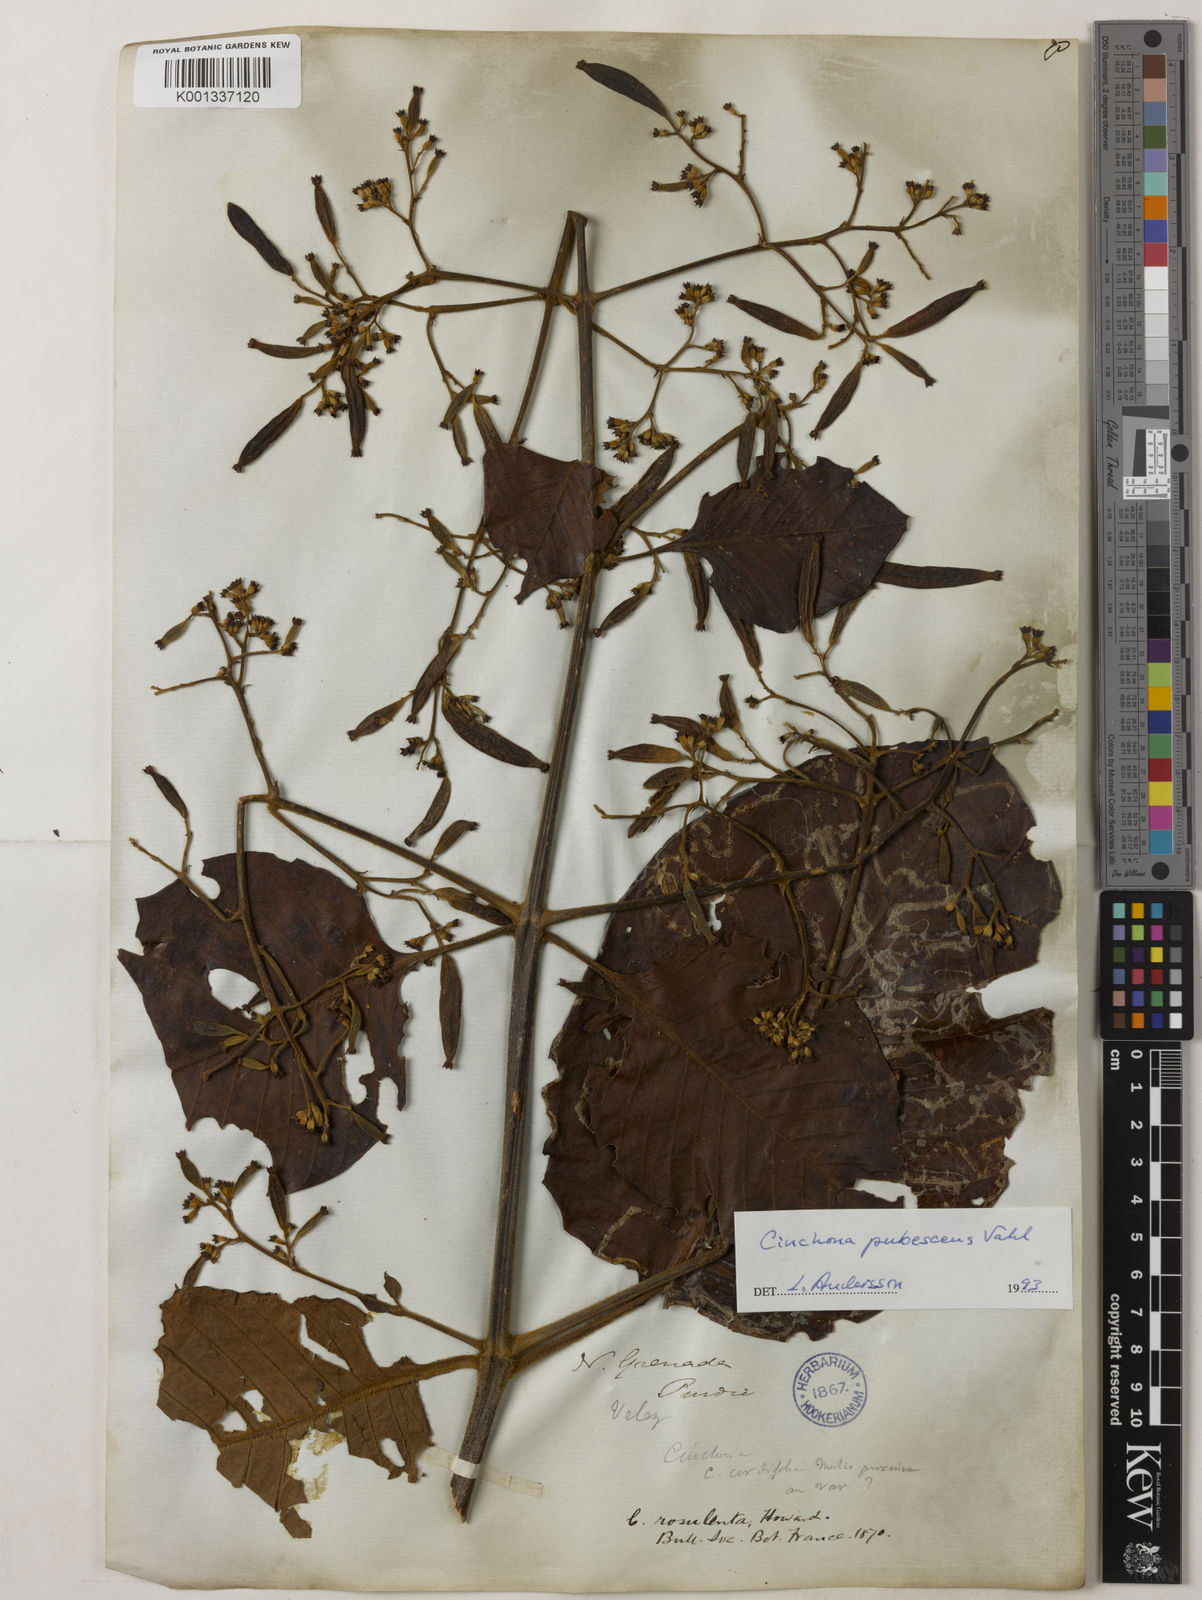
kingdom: Plantae
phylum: Tracheophyta
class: Magnoliopsida
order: Gentianales
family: Rubiaceae
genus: Cinchona
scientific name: Cinchona pubescens
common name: Quinine
